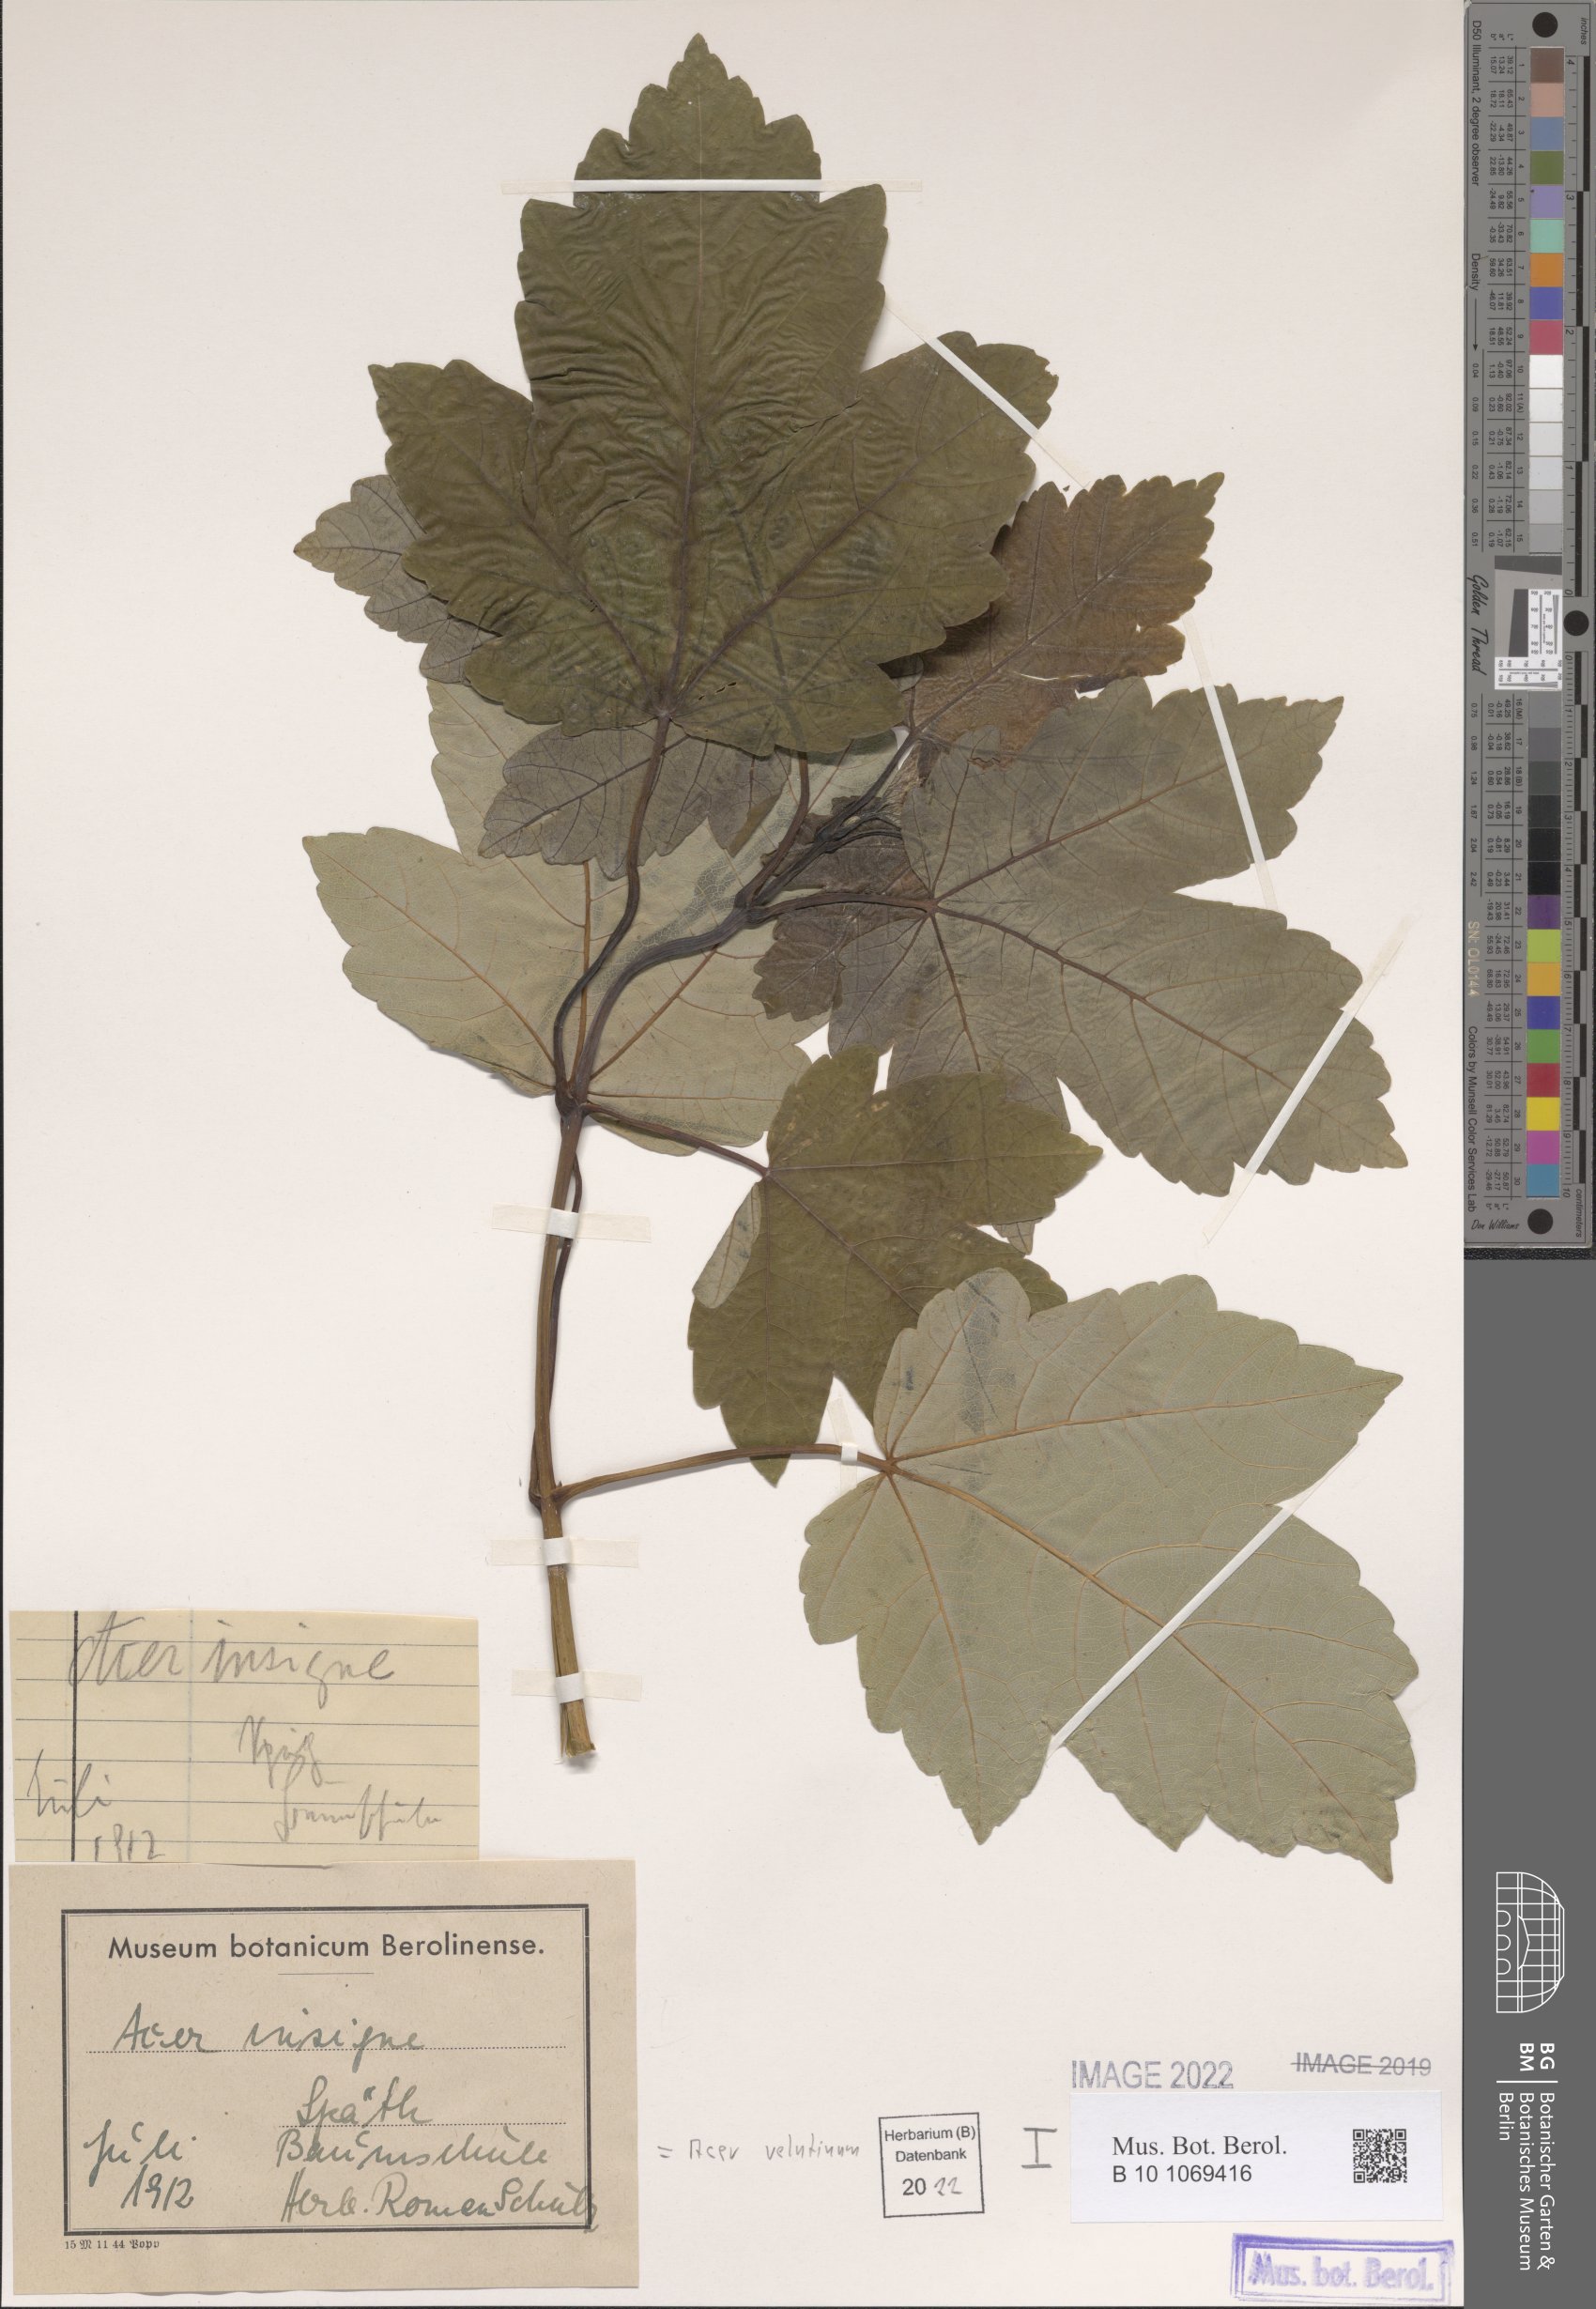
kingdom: Plantae
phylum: Tracheophyta
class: Magnoliopsida
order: Sapindales
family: Sapindaceae
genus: Acer
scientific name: Acer velutinum
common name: Velvet maple
